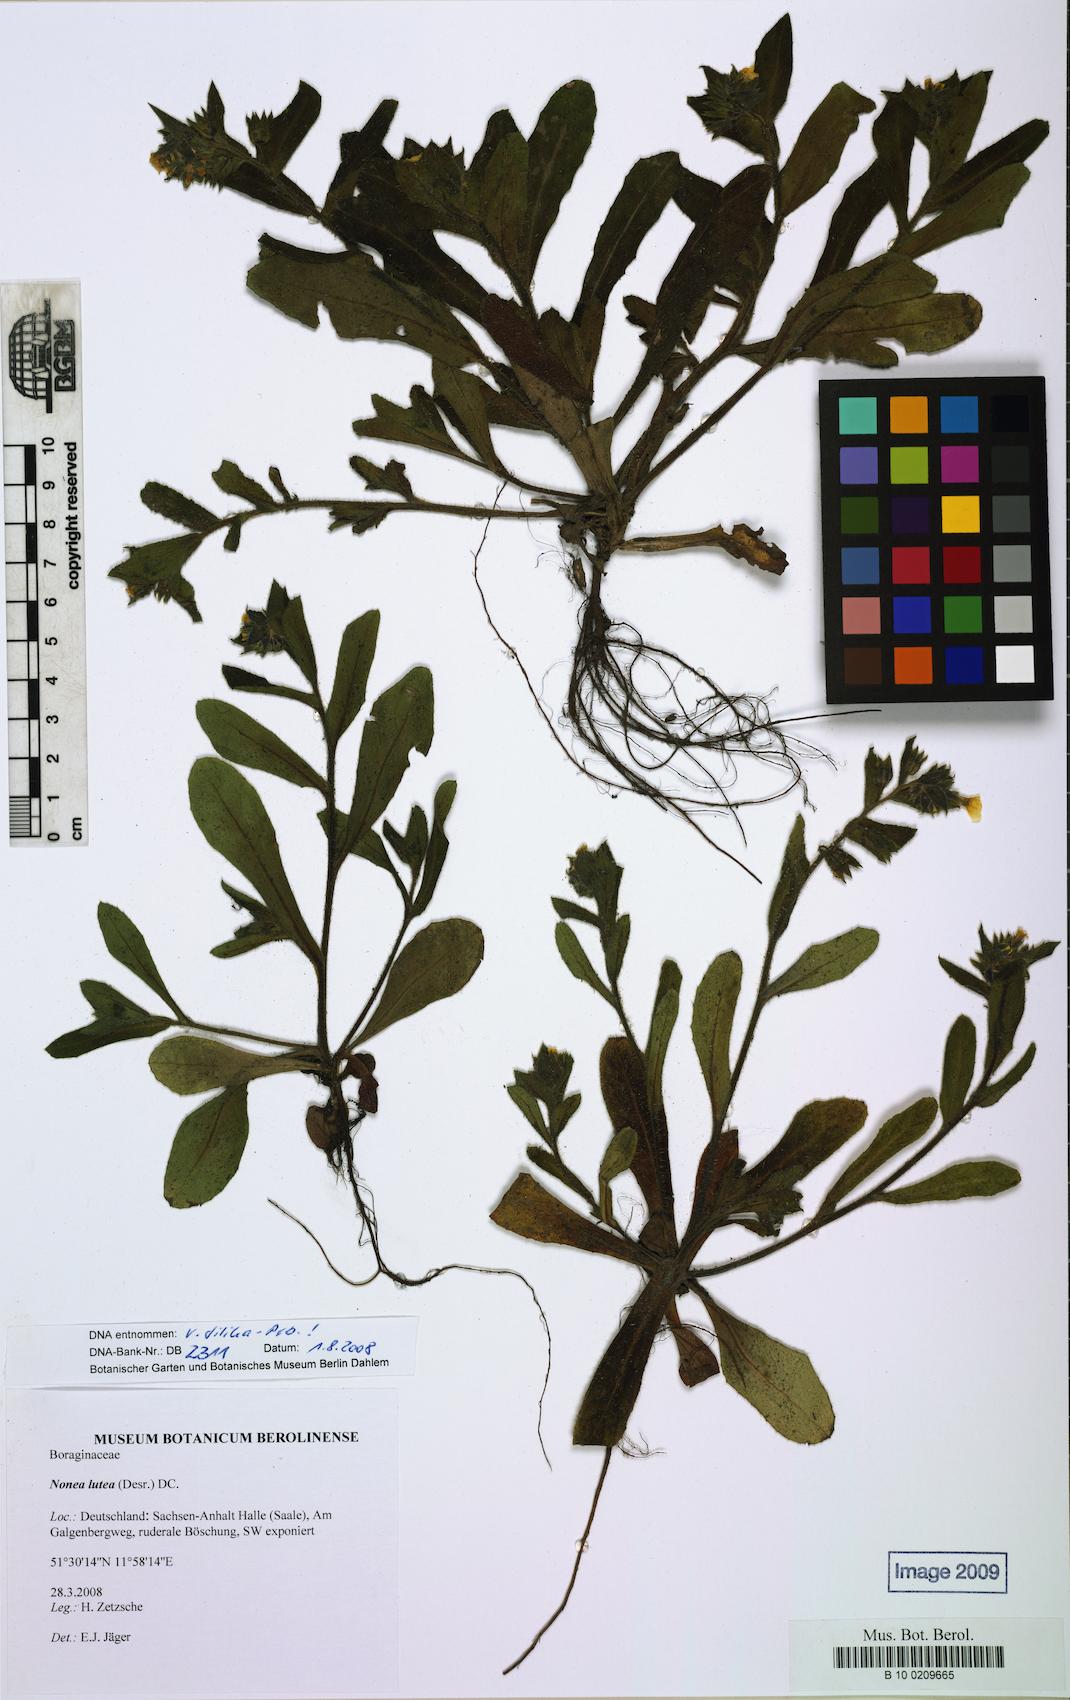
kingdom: Plantae
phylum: Tracheophyta
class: Magnoliopsida
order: Boraginales
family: Boraginaceae
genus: Nonea
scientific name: Nonea lutea
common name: Yellow nonea
